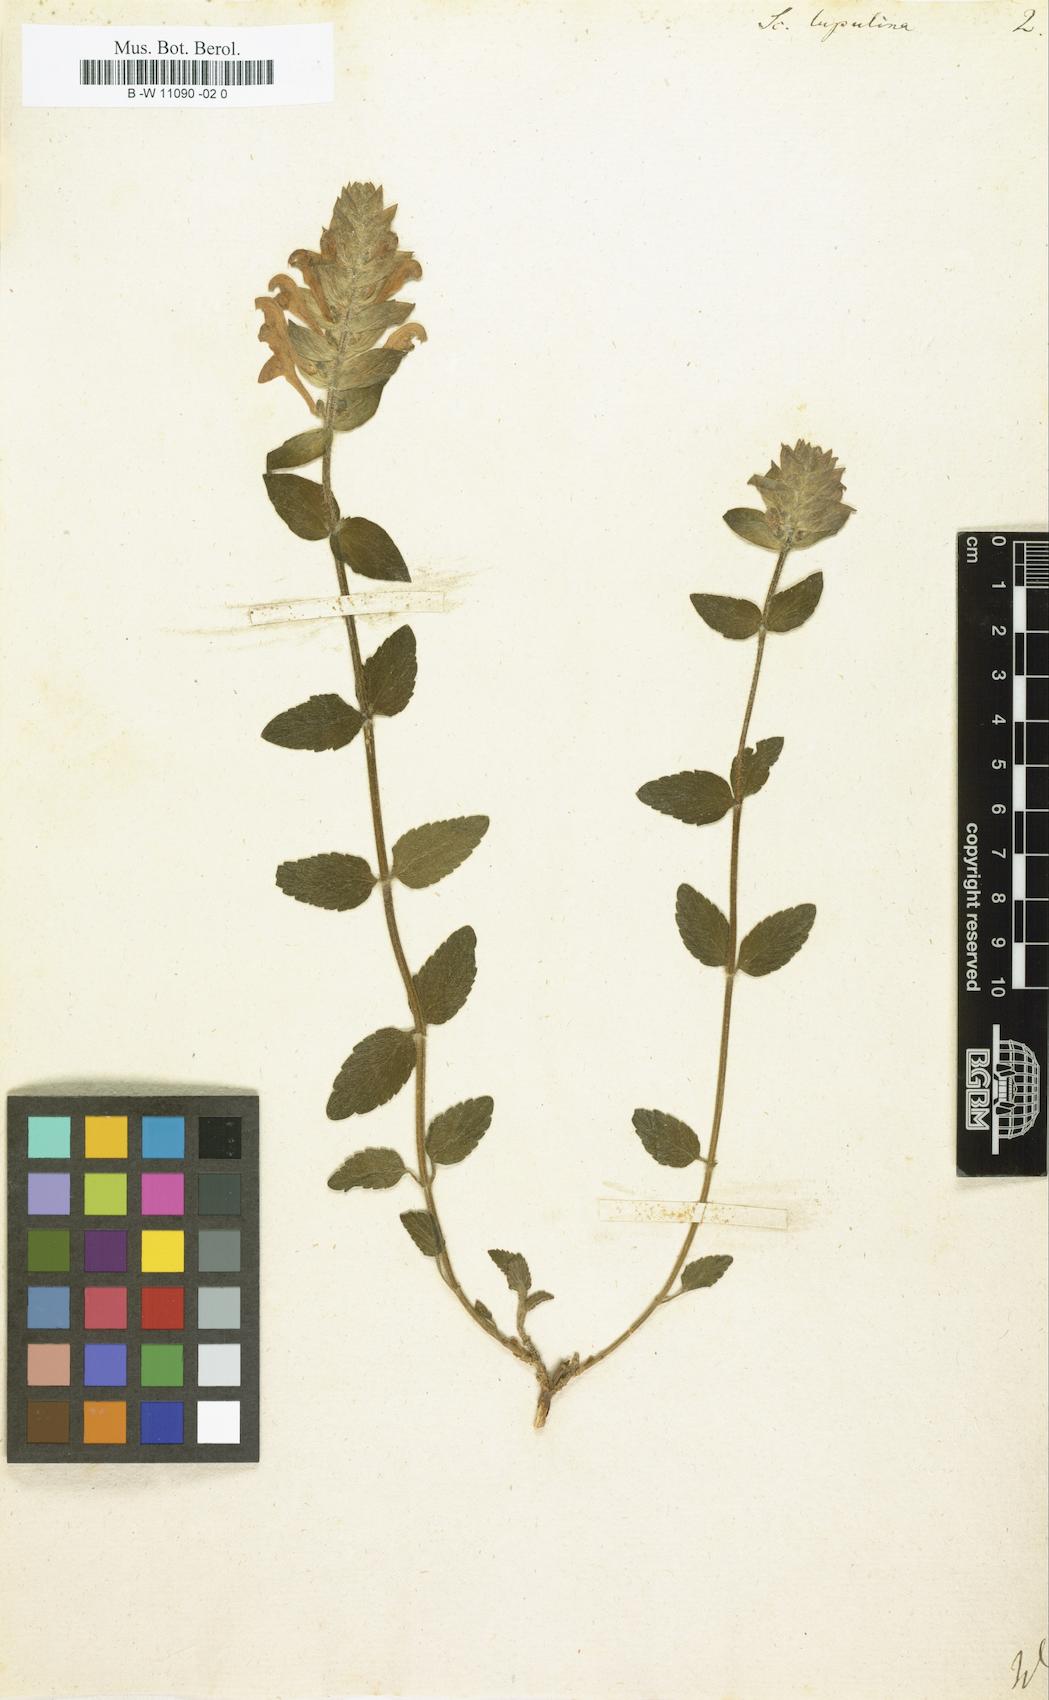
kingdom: Plantae
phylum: Tracheophyta
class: Magnoliopsida
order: Lamiales
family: Lamiaceae
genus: Scutellaria
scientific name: Scutellaria alpina
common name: Alpine scullcap
